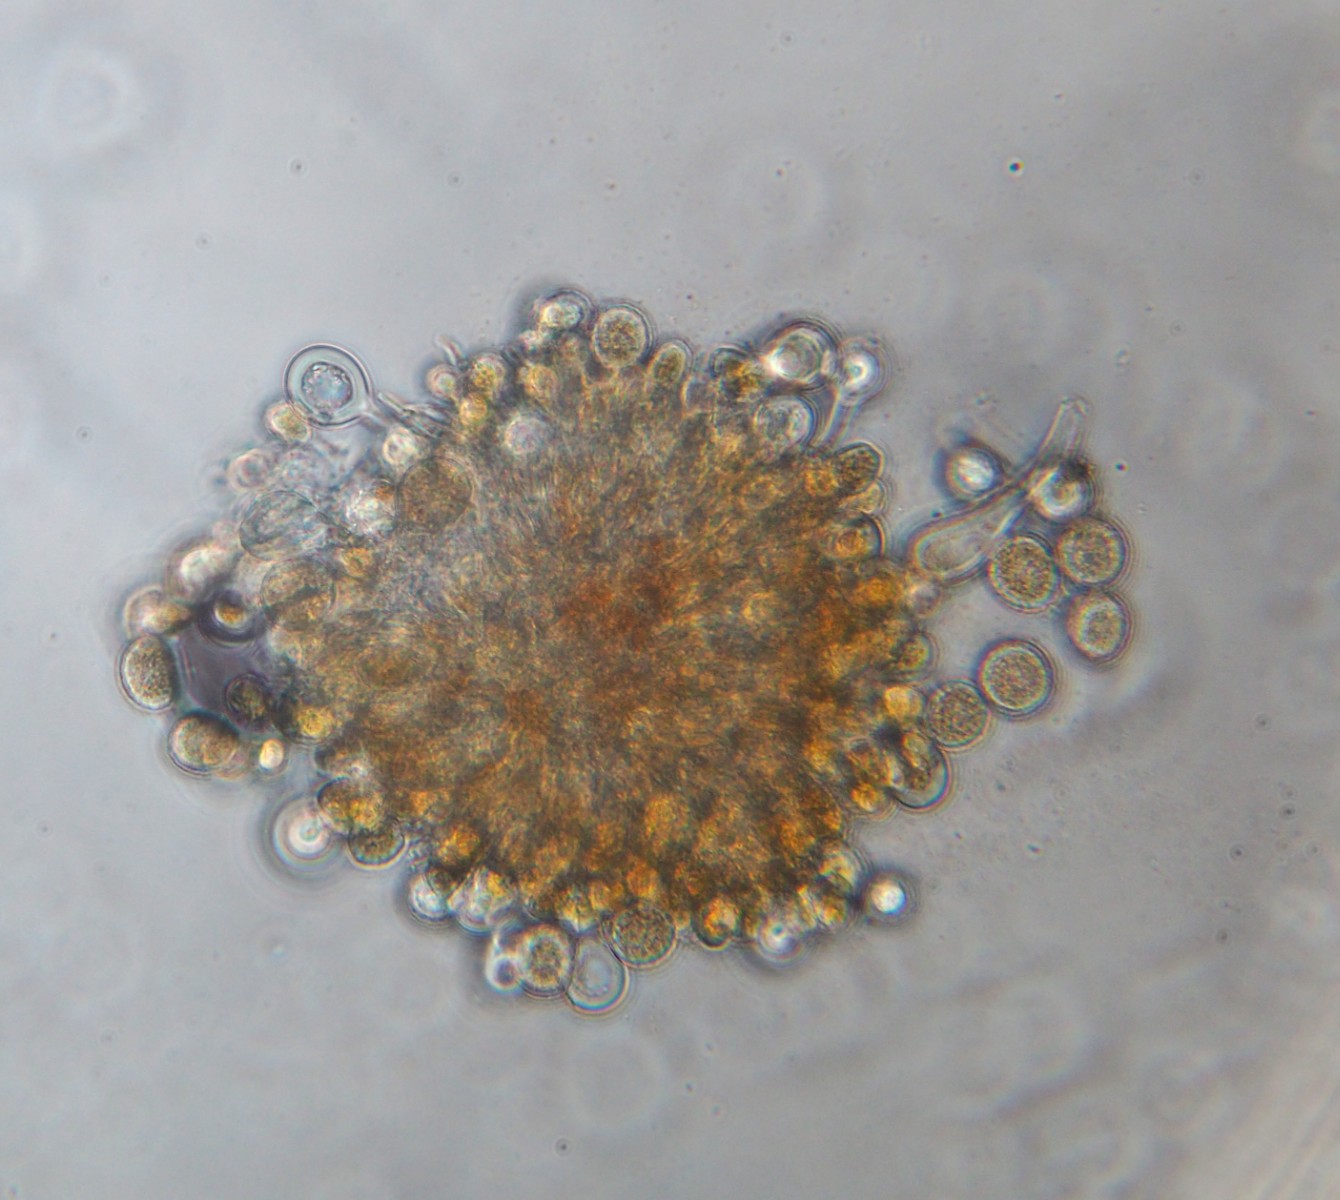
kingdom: Fungi
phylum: Basidiomycota
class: Pucciniomycetes
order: Pucciniales
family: Melampsoraceae
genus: Melampsora
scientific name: Melampsora caprearum
